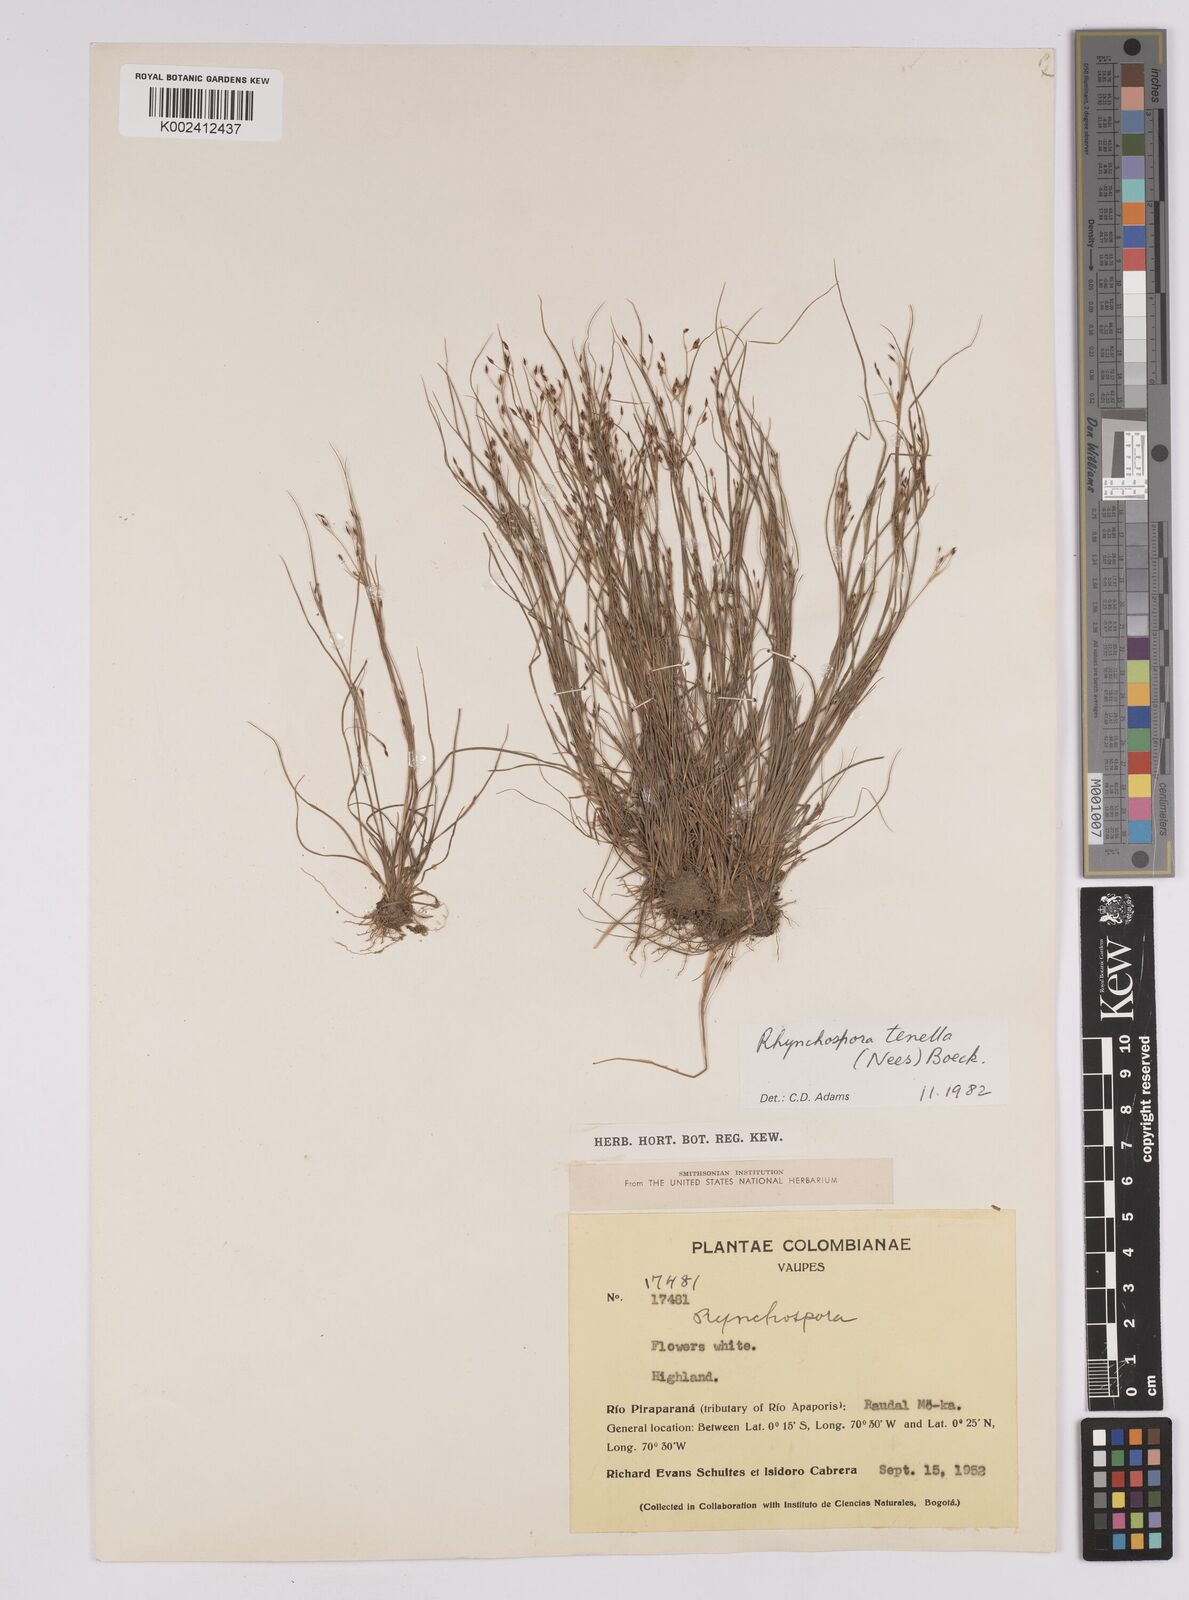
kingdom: Plantae
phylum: Tracheophyta
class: Liliopsida
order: Poales
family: Cyperaceae
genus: Rhynchospora
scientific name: Rhynchospora tenella
